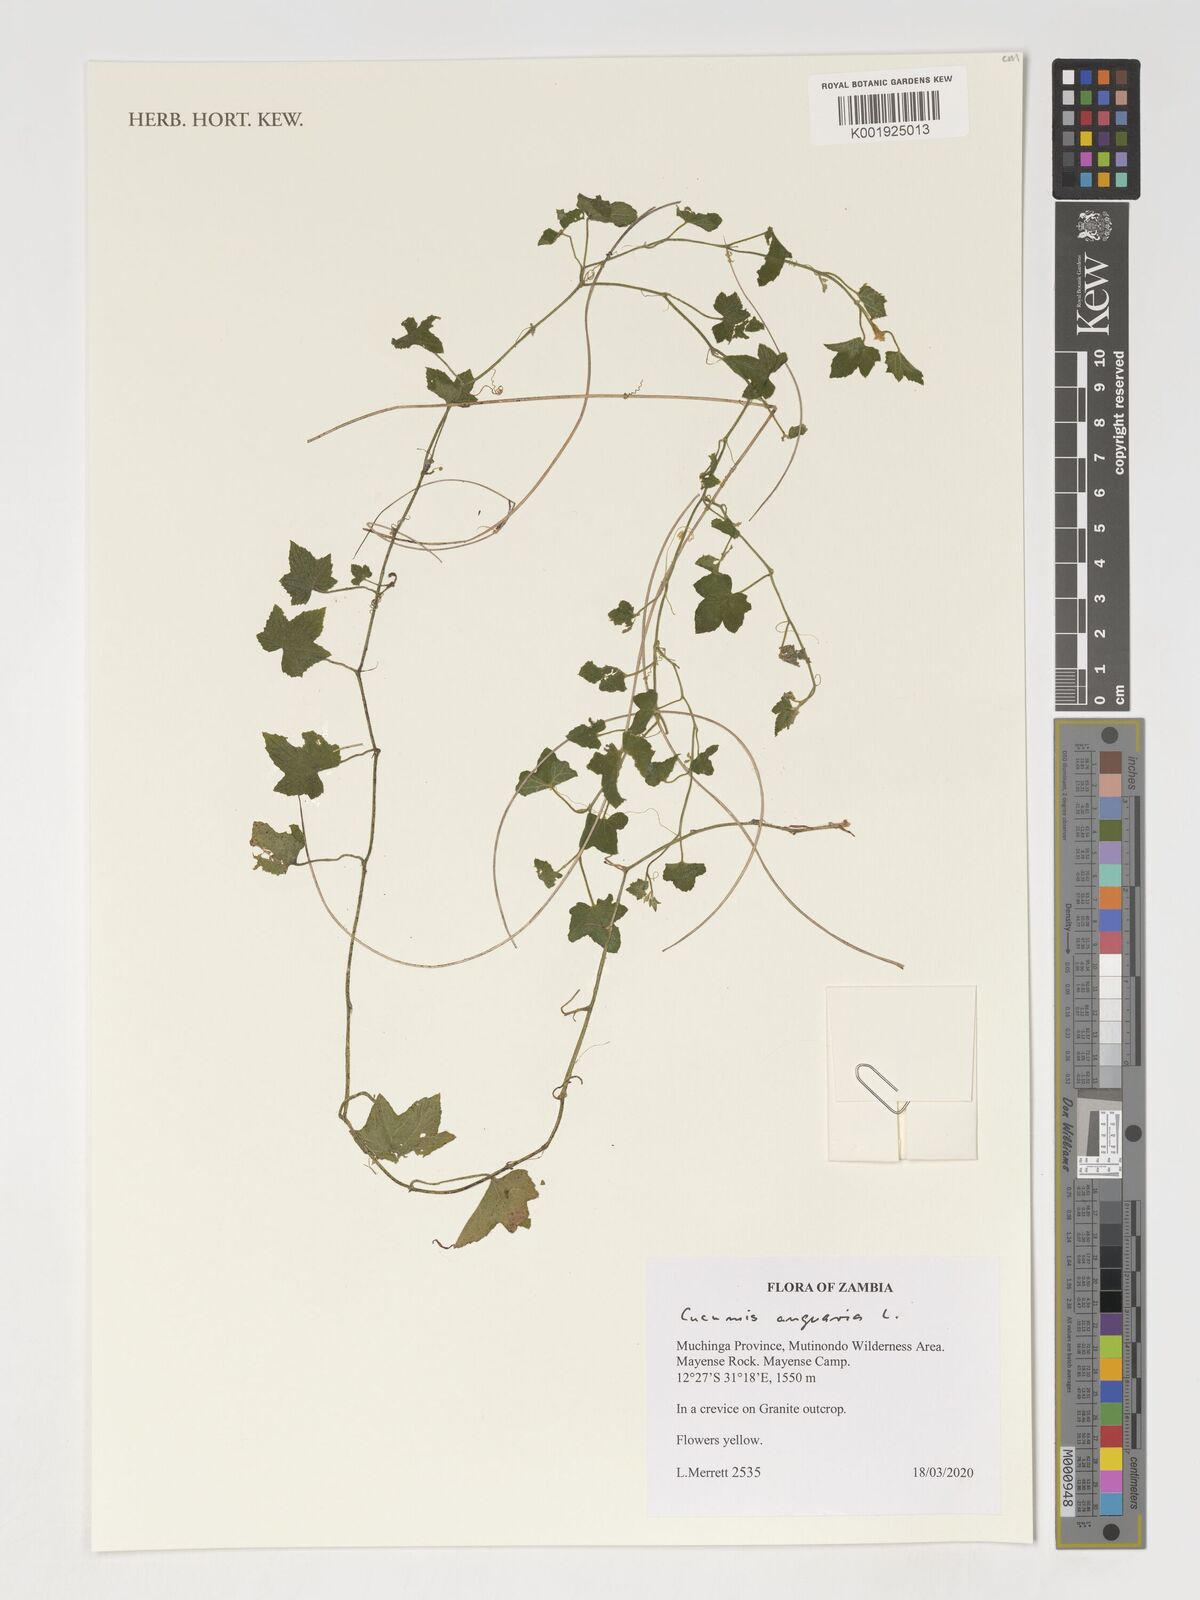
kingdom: Plantae
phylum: Tracheophyta
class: Magnoliopsida
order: Cucurbitales
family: Cucurbitaceae
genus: Cucumis
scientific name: Cucumis anguria
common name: West indian gherkin
